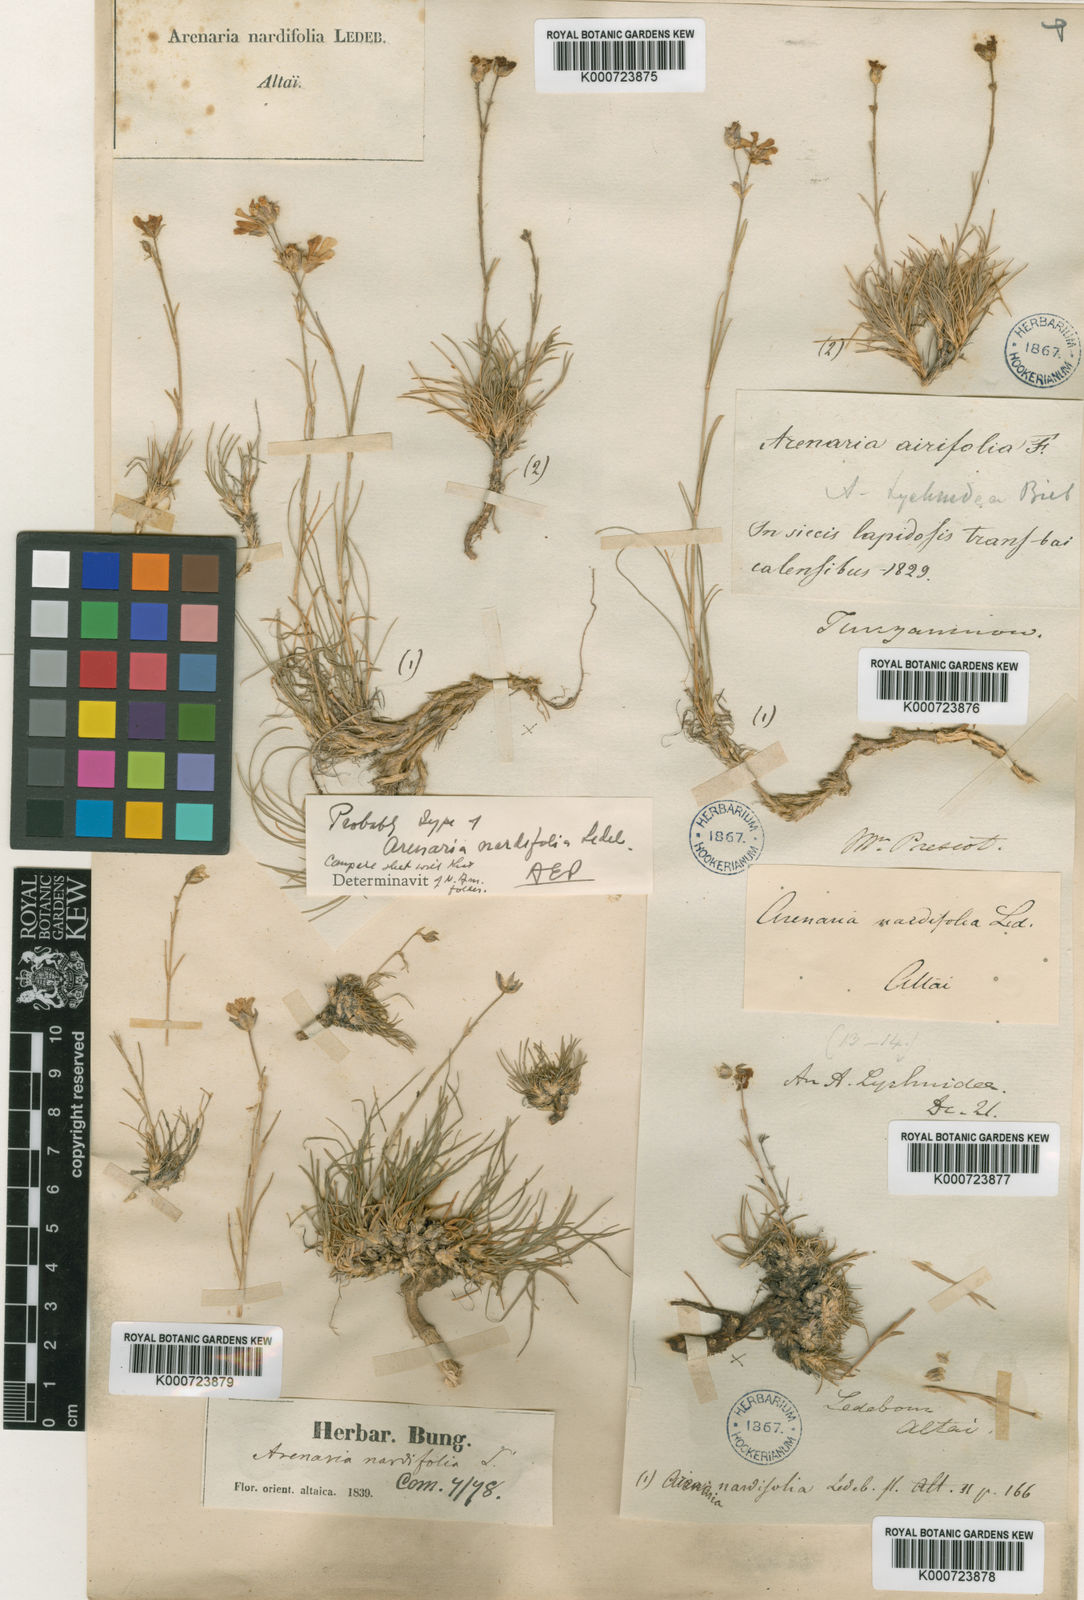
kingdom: Plantae
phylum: Tracheophyta
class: Magnoliopsida
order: Caryophyllales
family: Caryophyllaceae
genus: Arenaria
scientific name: Arenaria
